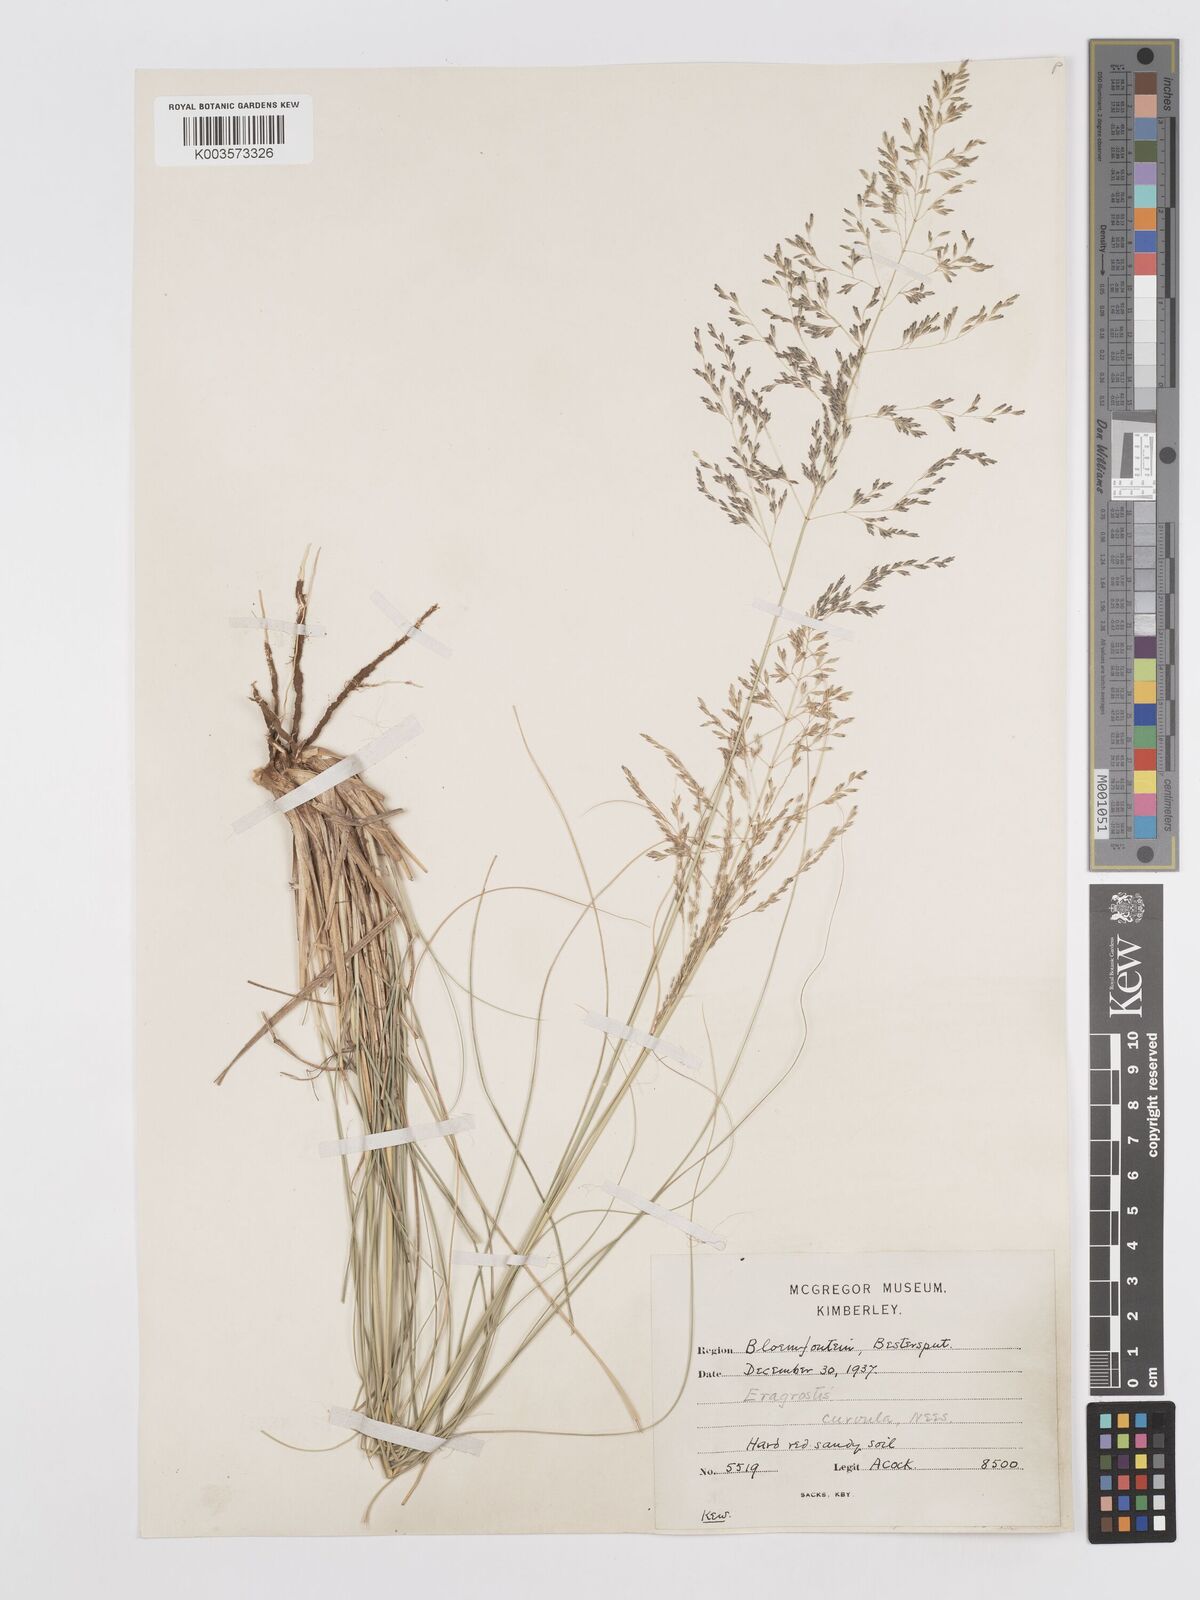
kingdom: Plantae
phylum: Tracheophyta
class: Liliopsida
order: Poales
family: Poaceae
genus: Eragrostis
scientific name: Eragrostis curvula
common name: African love-grass
